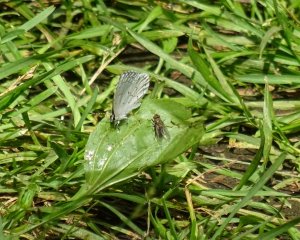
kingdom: Animalia
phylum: Arthropoda
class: Insecta
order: Lepidoptera
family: Lycaenidae
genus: Cyaniris
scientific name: Cyaniris neglecta
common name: Summer Azure
